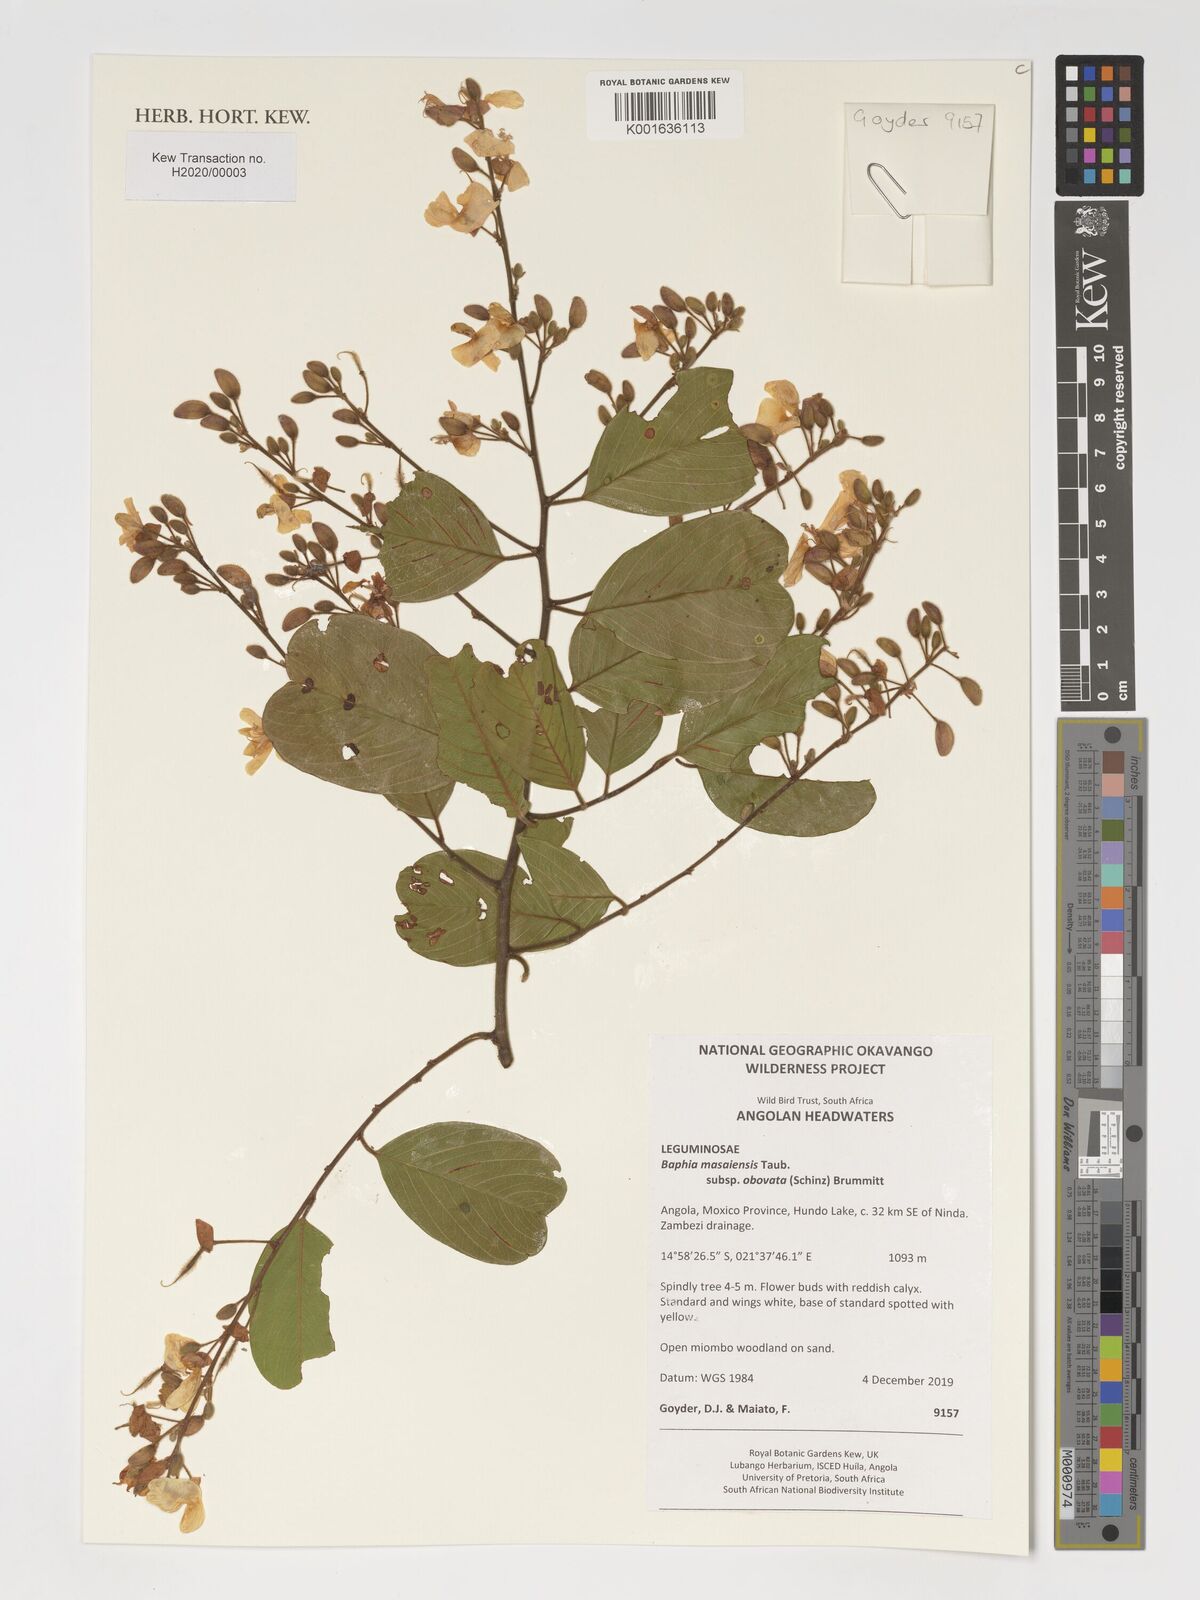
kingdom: Plantae
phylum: Tracheophyta
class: Magnoliopsida
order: Fabales
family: Fabaceae
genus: Baphia
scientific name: Baphia massaiensis
